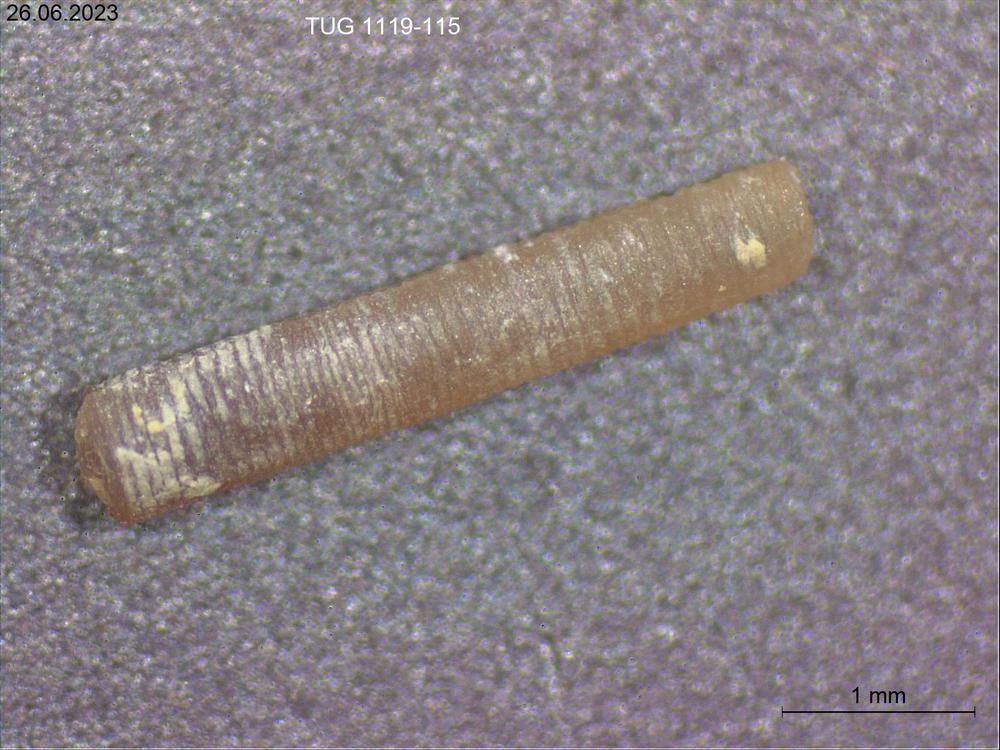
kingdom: Animalia
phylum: Mollusca
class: Cricoconarida
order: Tentaculitida
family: Tentaculitidae
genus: Tentaculites
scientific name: Tentaculites
